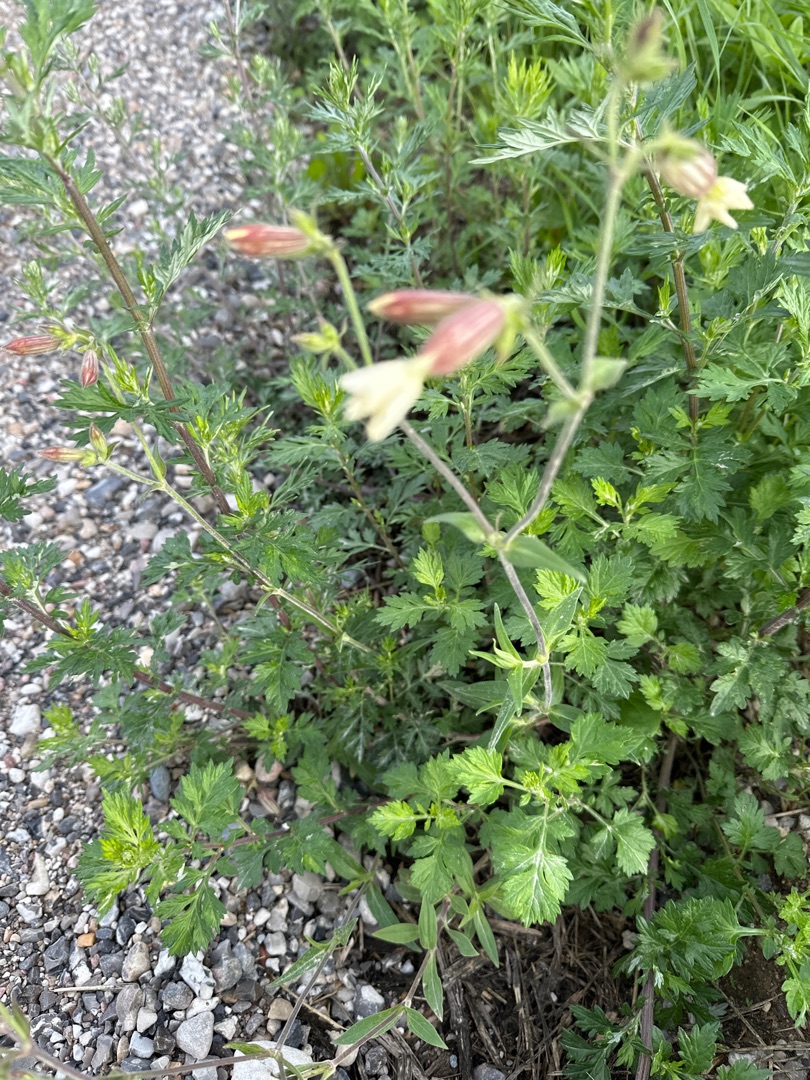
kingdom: Plantae
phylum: Tracheophyta
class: Magnoliopsida
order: Caryophyllales
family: Caryophyllaceae
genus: Silene
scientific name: Silene latifolia
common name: Aftenpragtstjerne
